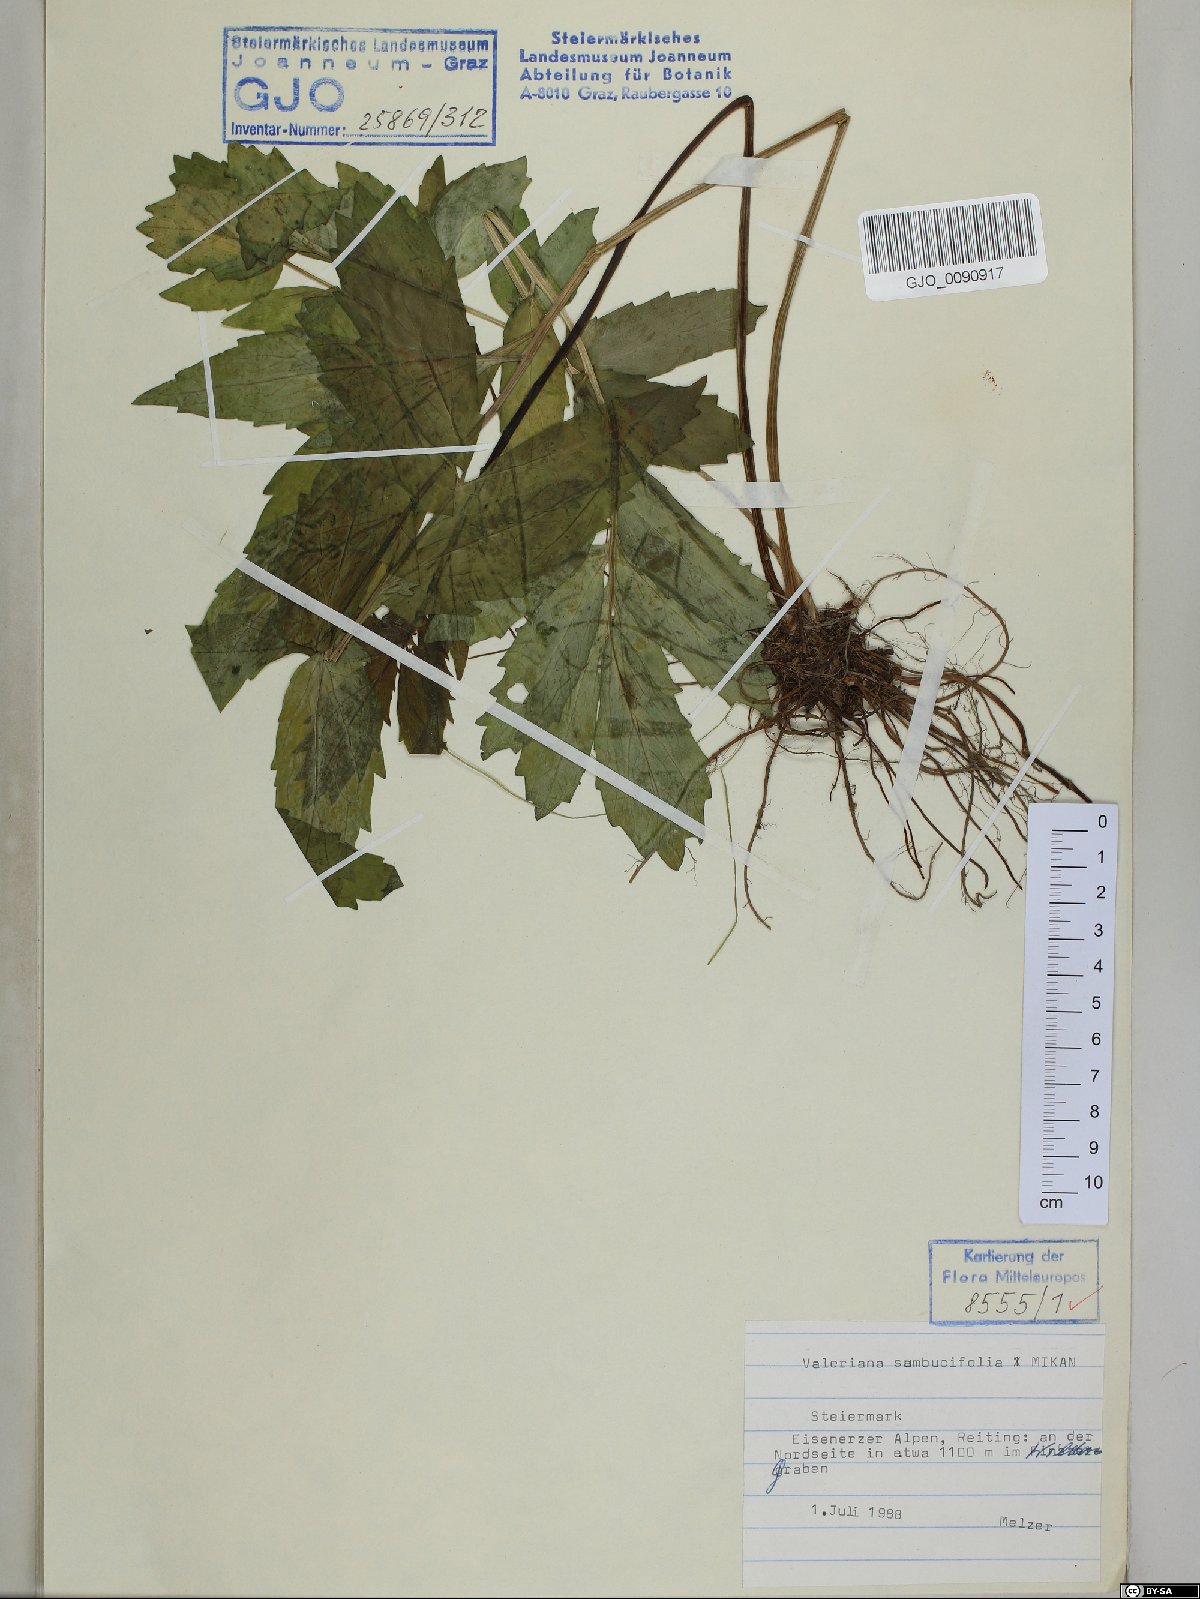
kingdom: Plantae
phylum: Tracheophyta
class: Magnoliopsida
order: Dipsacales
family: Caprifoliaceae
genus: Valeriana
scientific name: Valeriana excelsa
